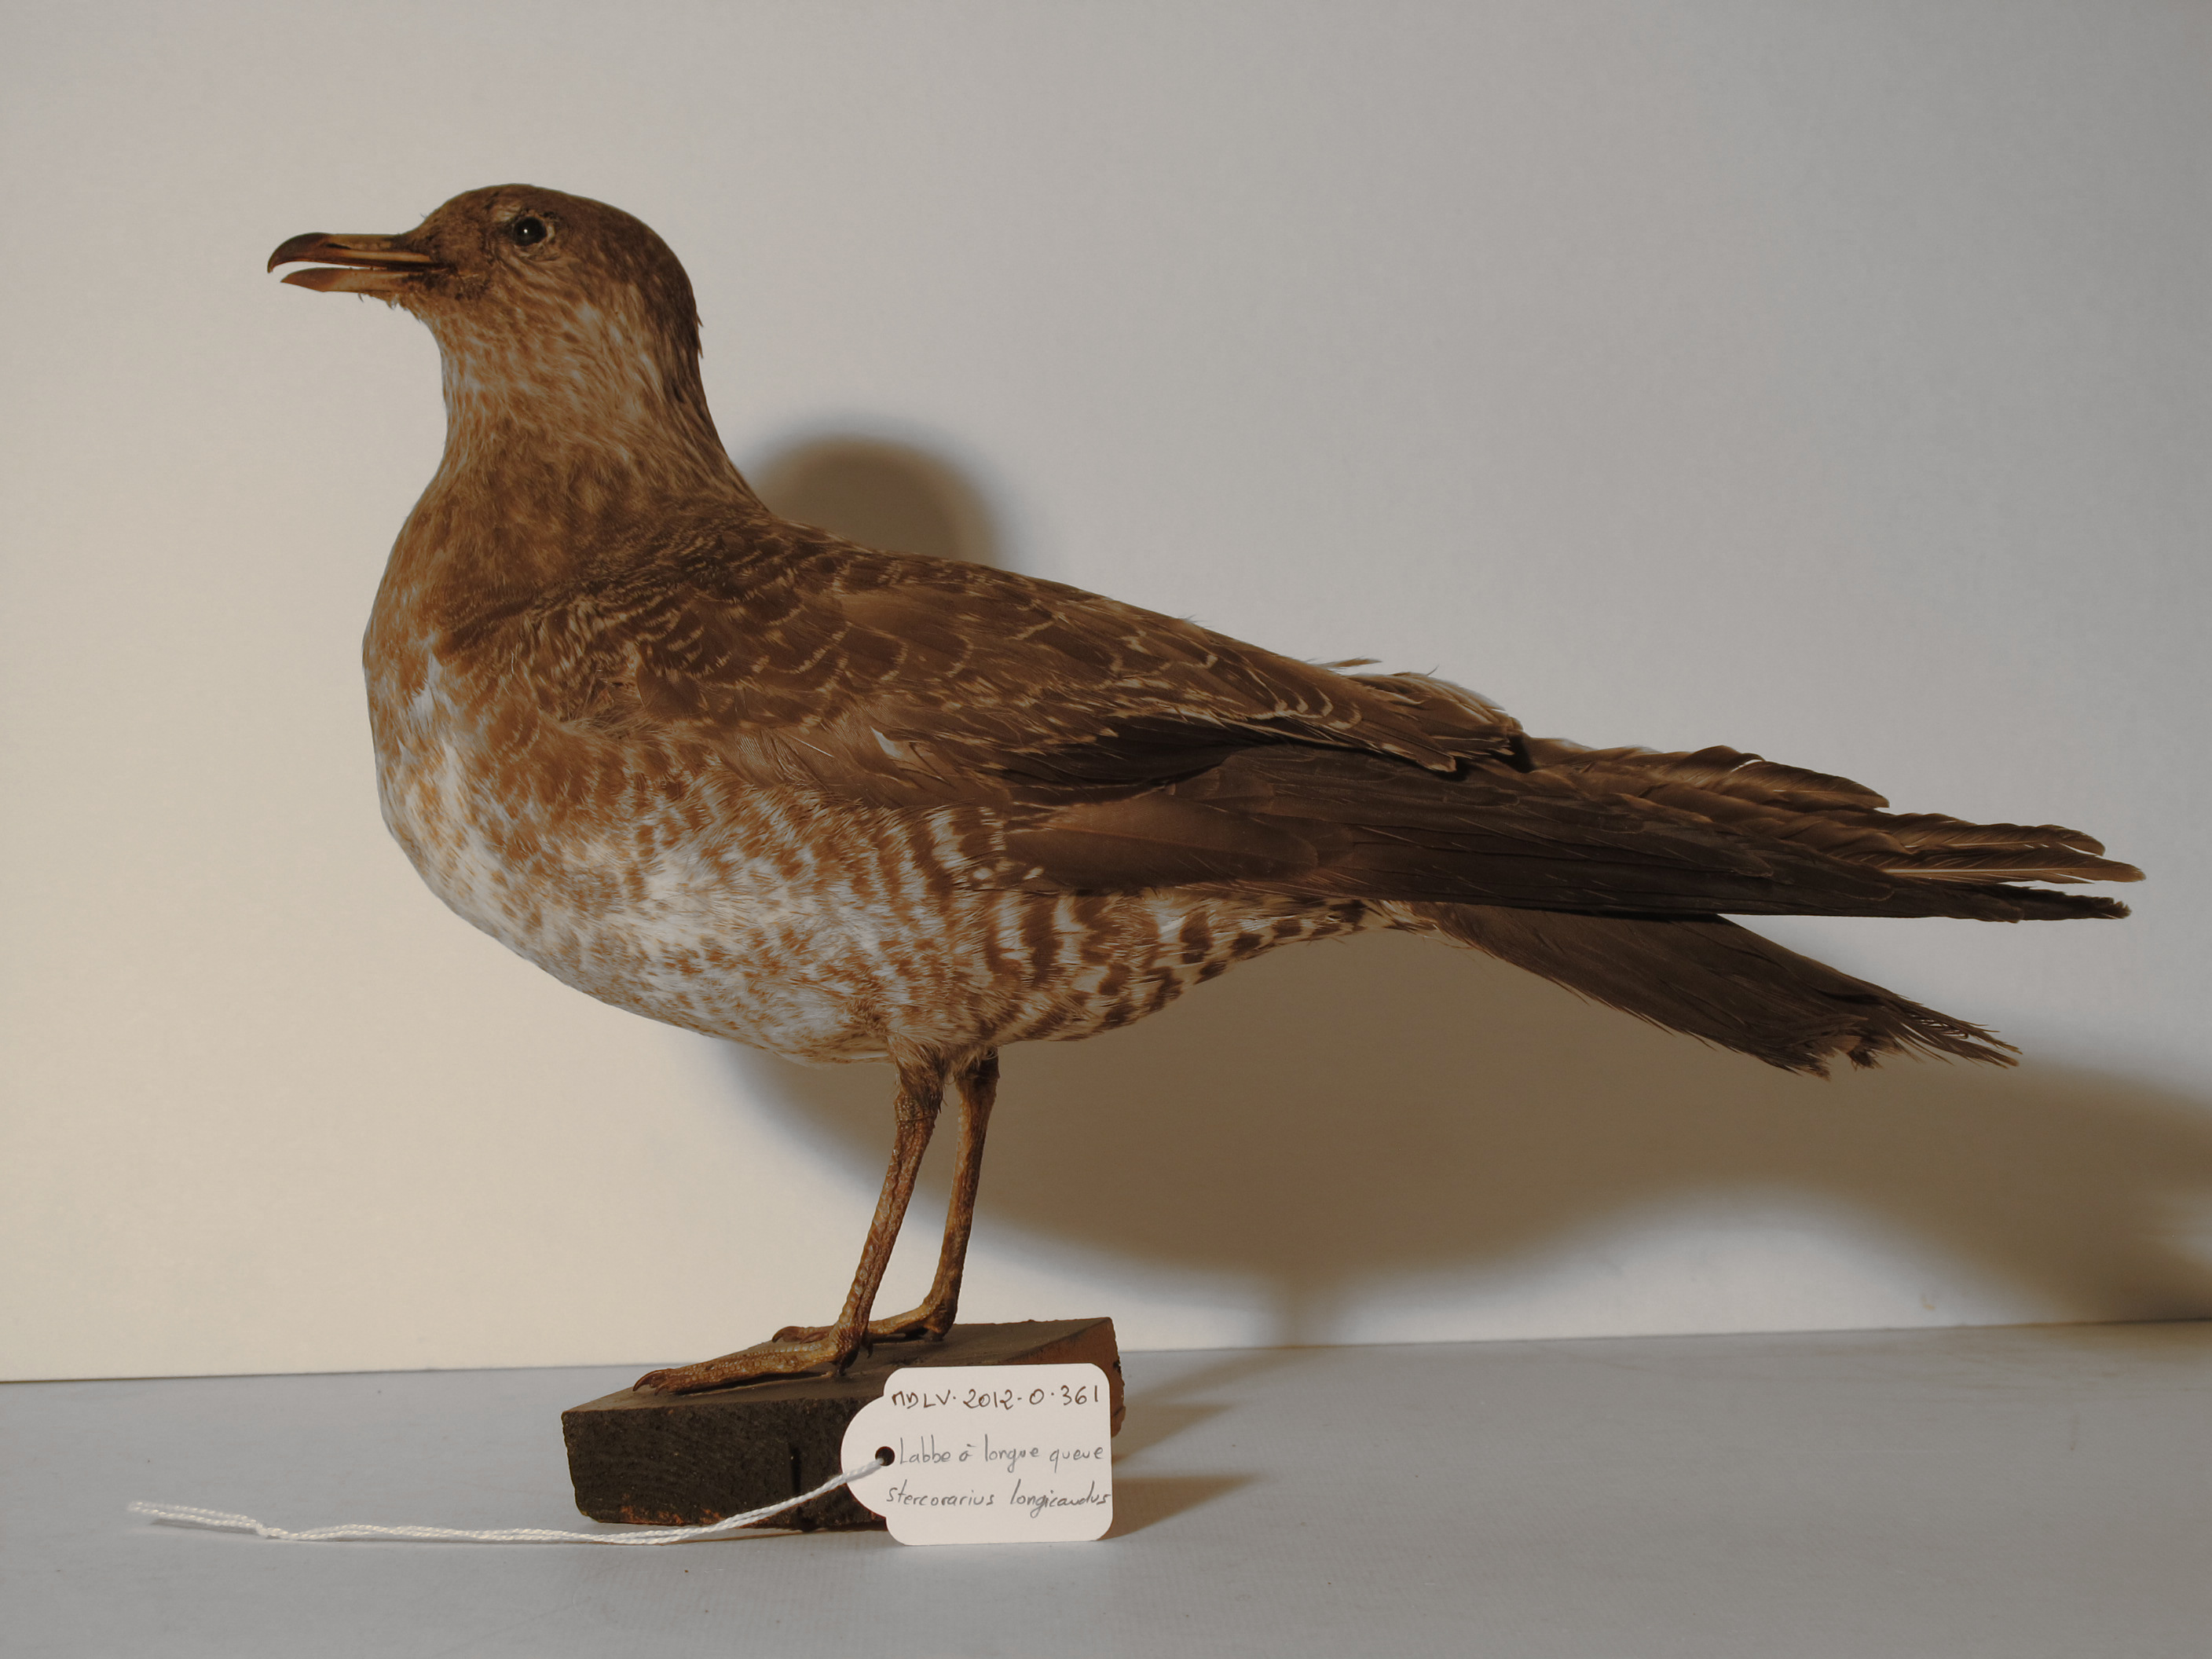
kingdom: Animalia
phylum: Chordata
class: Aves
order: Charadriiformes
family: Stercorariidae
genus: Stercorarius
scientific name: Stercorarius longicaudus
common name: Long-tailed Skua
